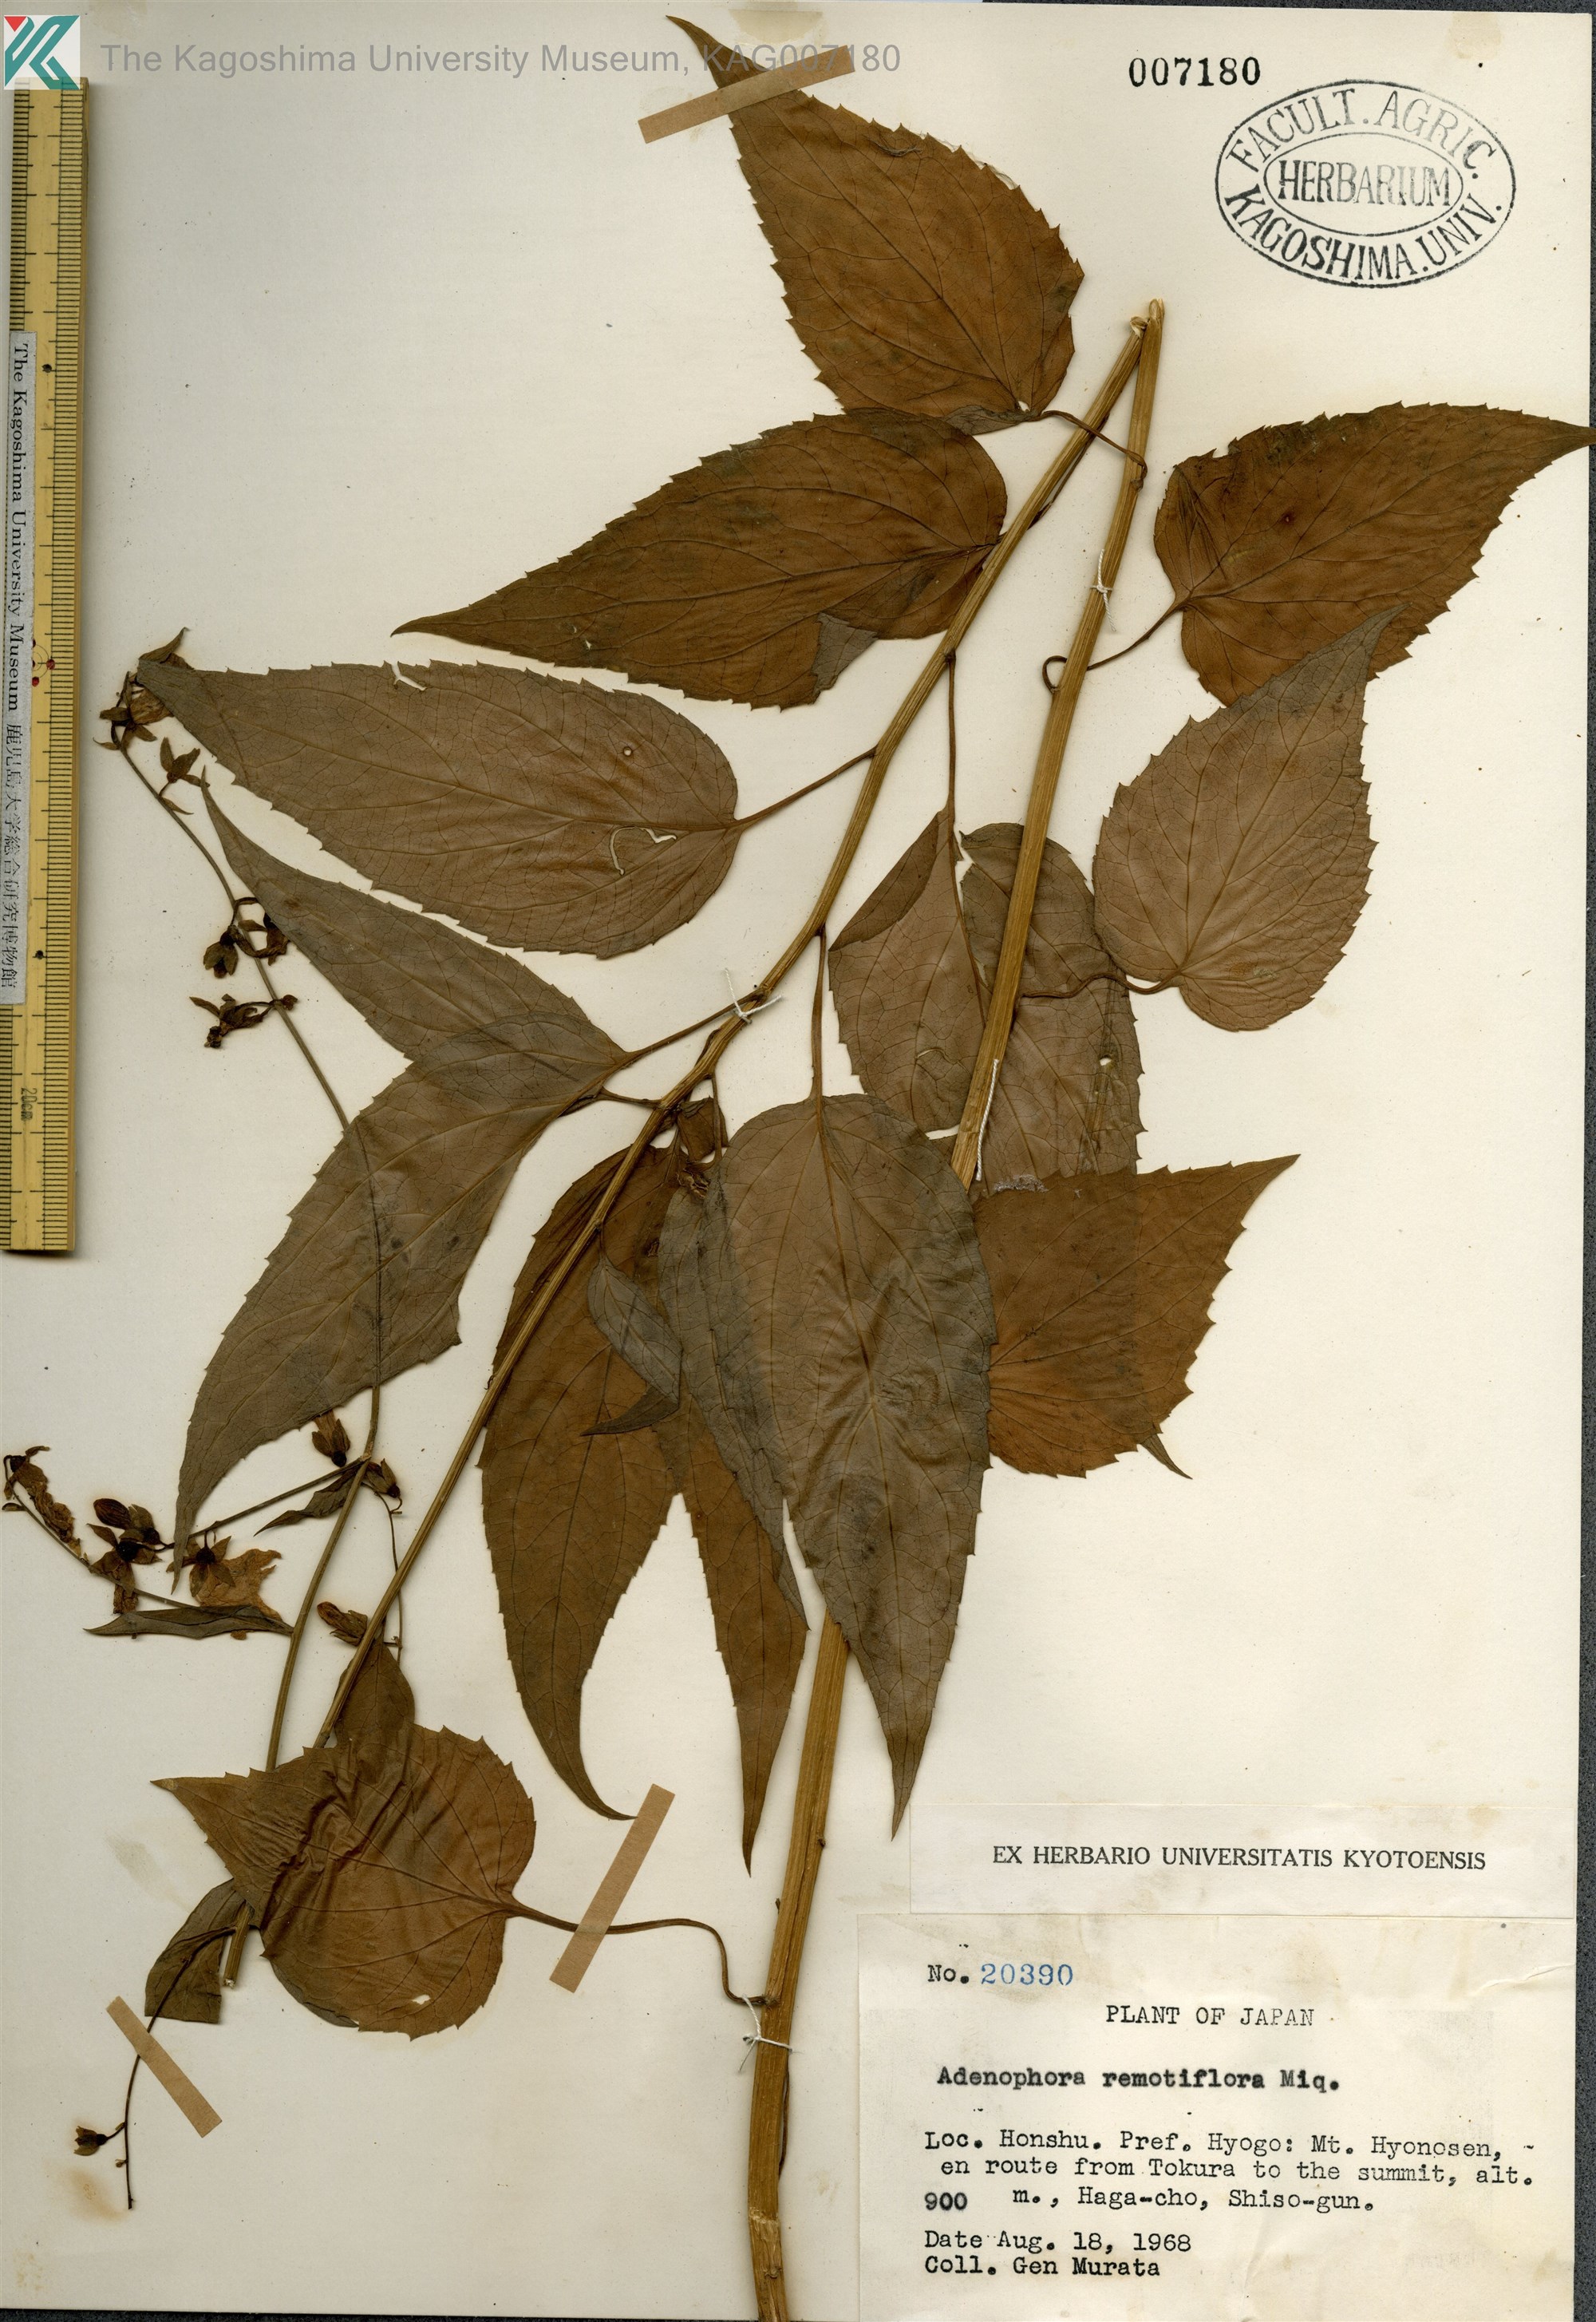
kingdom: Plantae
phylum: Tracheophyta
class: Magnoliopsida
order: Asterales
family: Campanulaceae
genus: Adenophora
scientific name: Adenophora remotiflora
